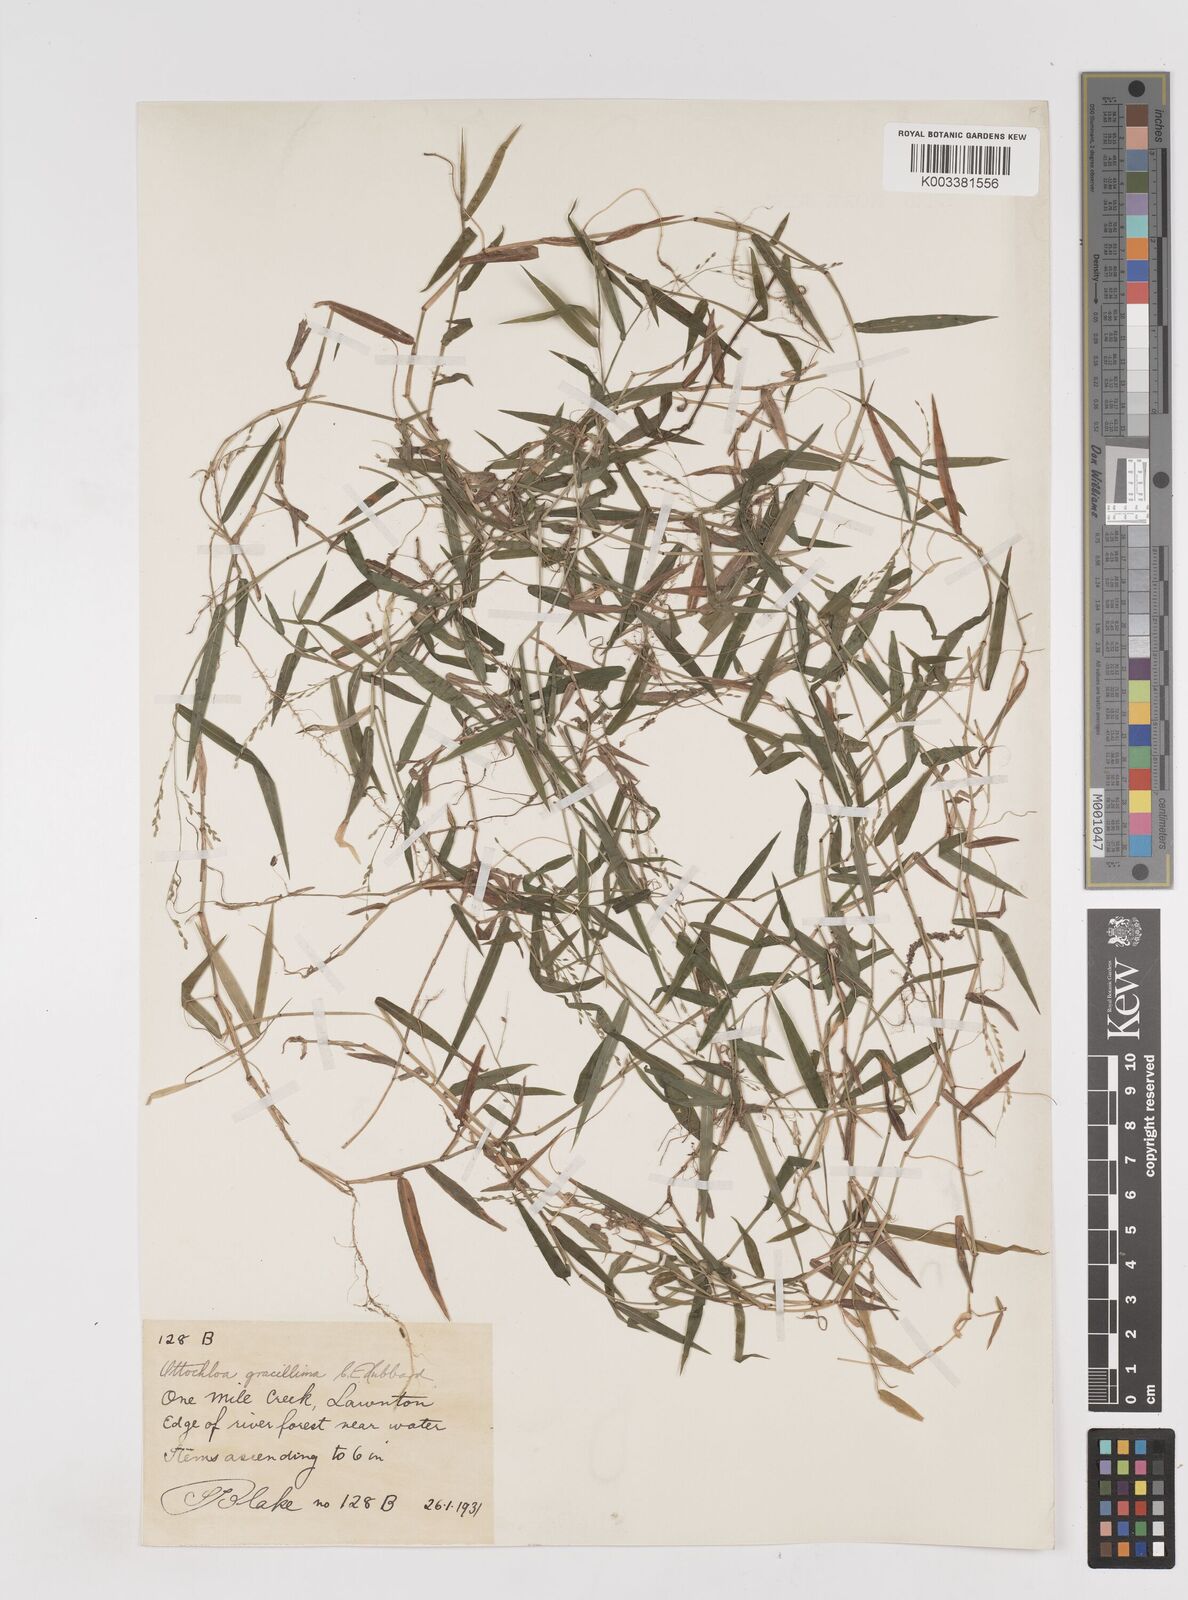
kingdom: Plantae
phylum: Tracheophyta
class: Liliopsida
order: Poales
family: Poaceae
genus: Ottochloa
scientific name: Ottochloa gracillima
